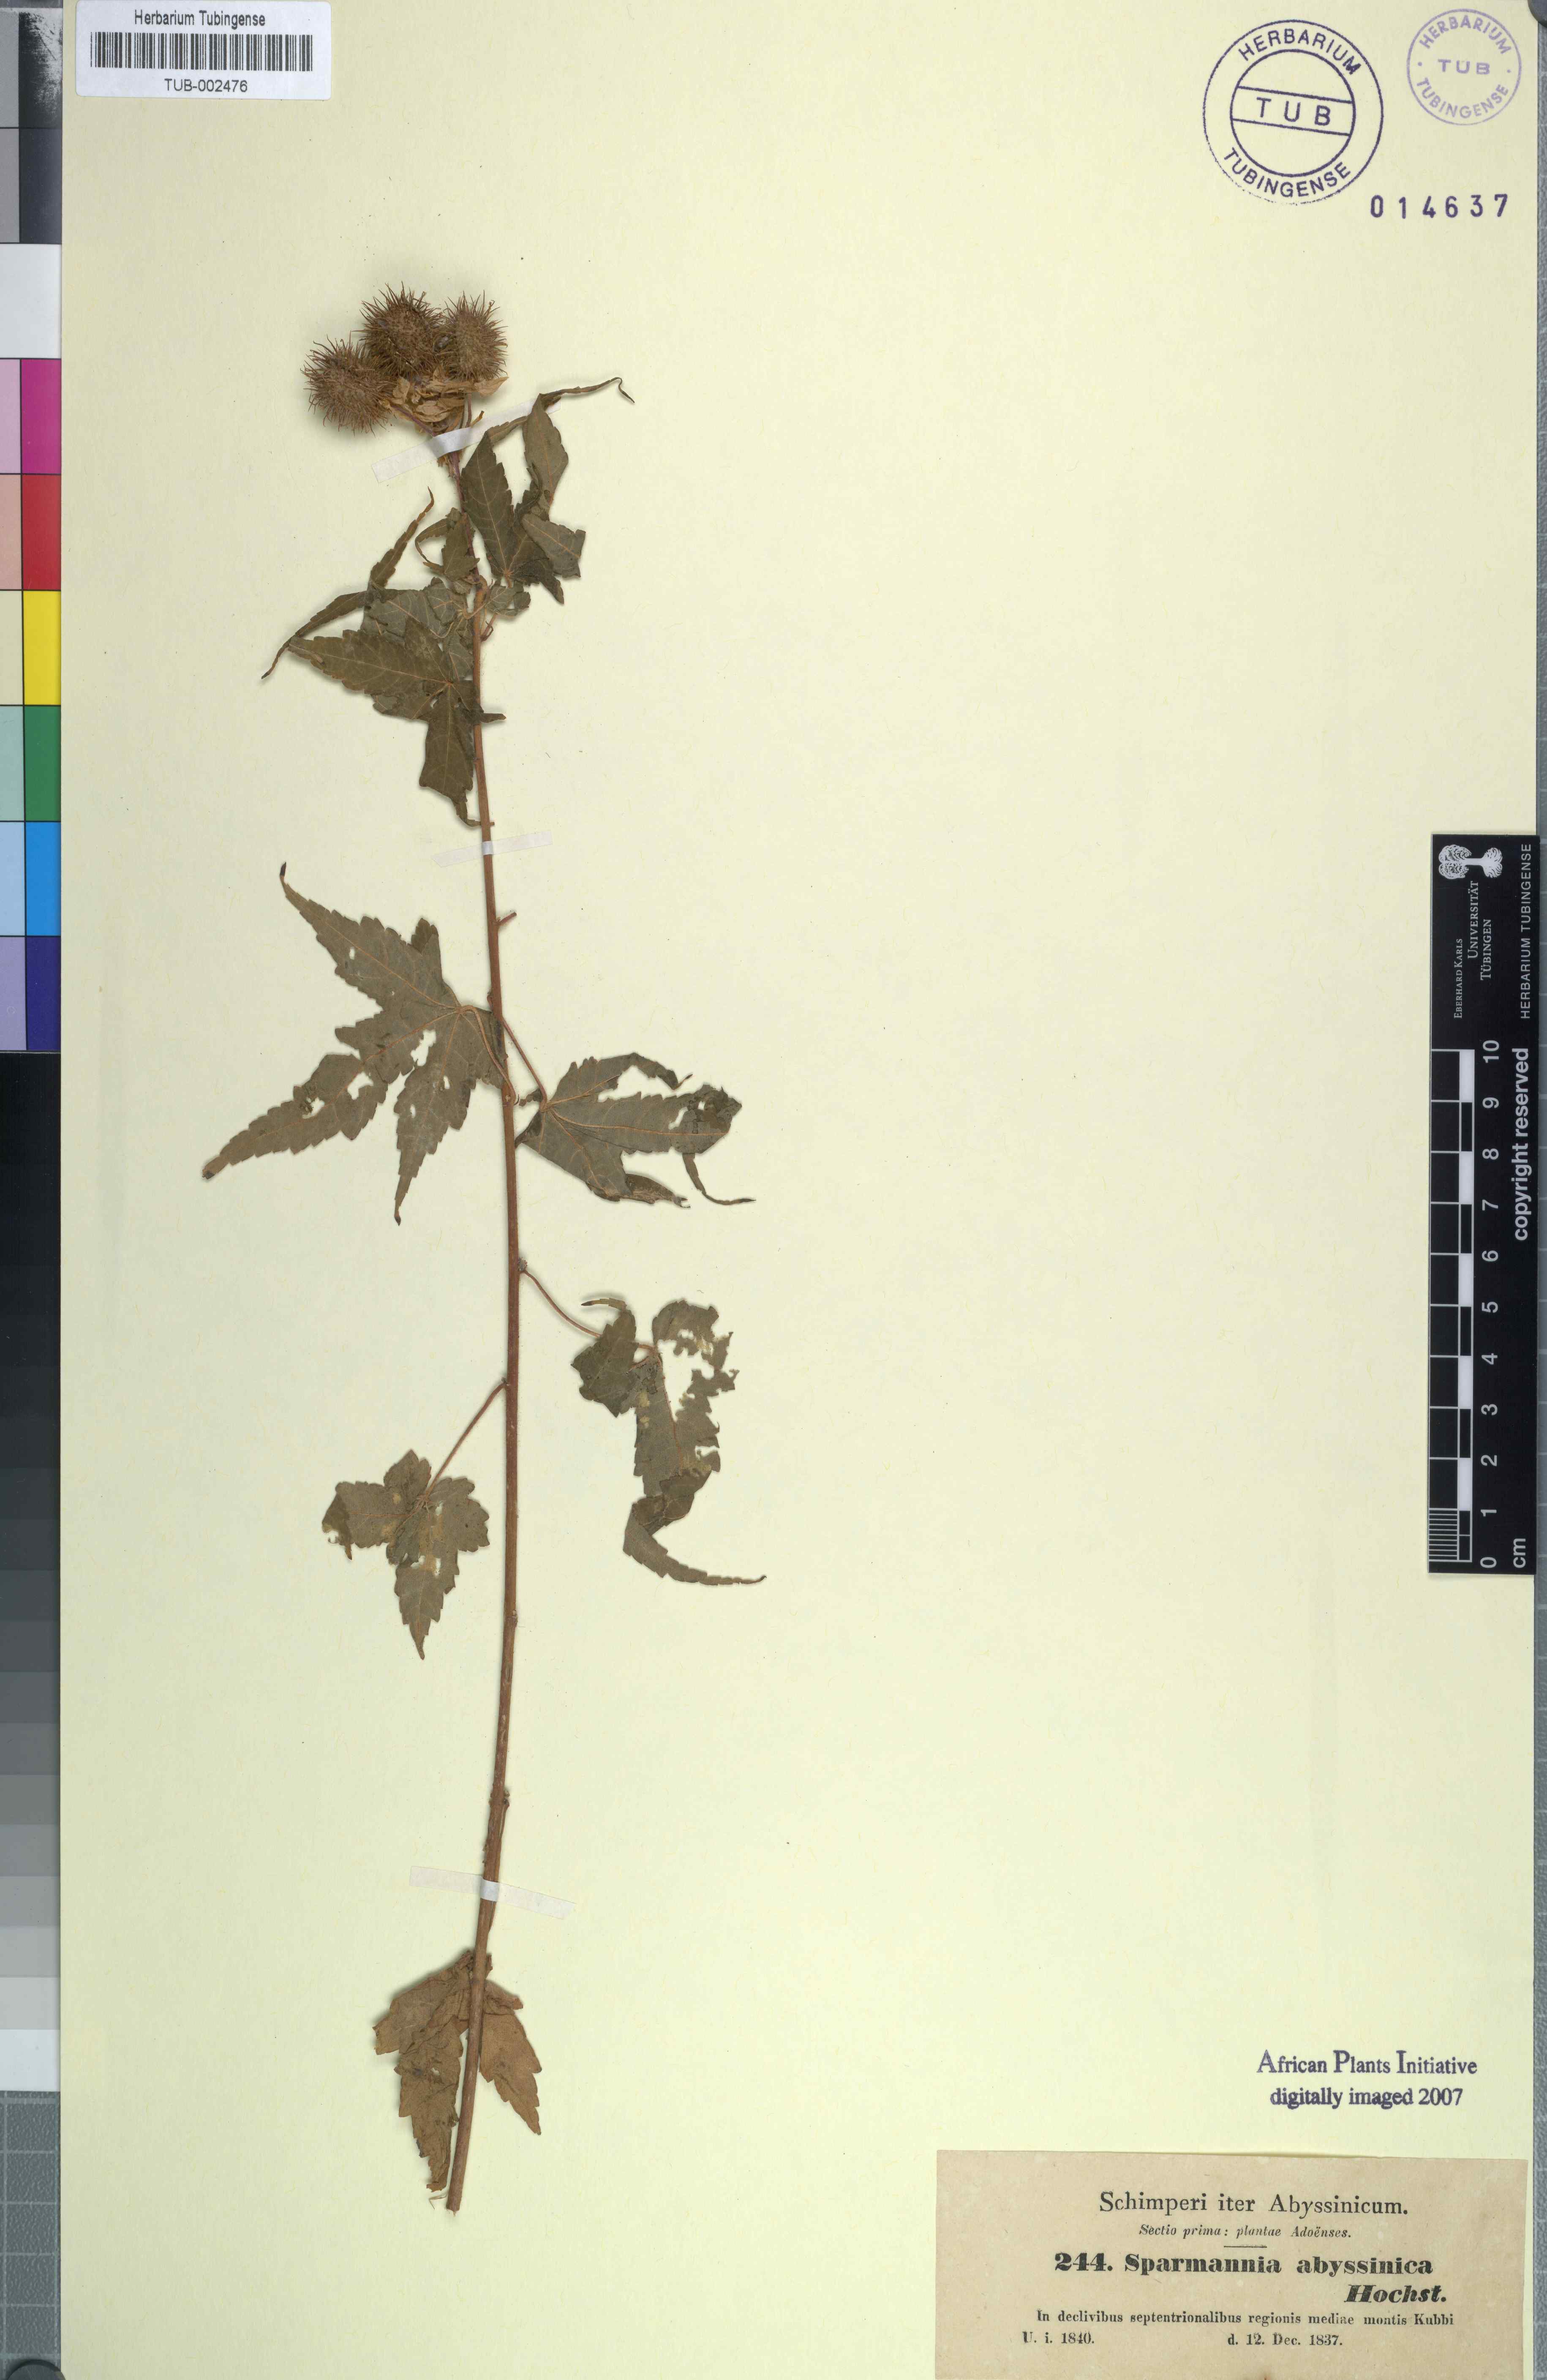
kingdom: Plantae
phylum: Tracheophyta
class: Magnoliopsida
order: Malvales
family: Malvaceae
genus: Sparrmannia
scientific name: Sparrmannia ricinocarpa
